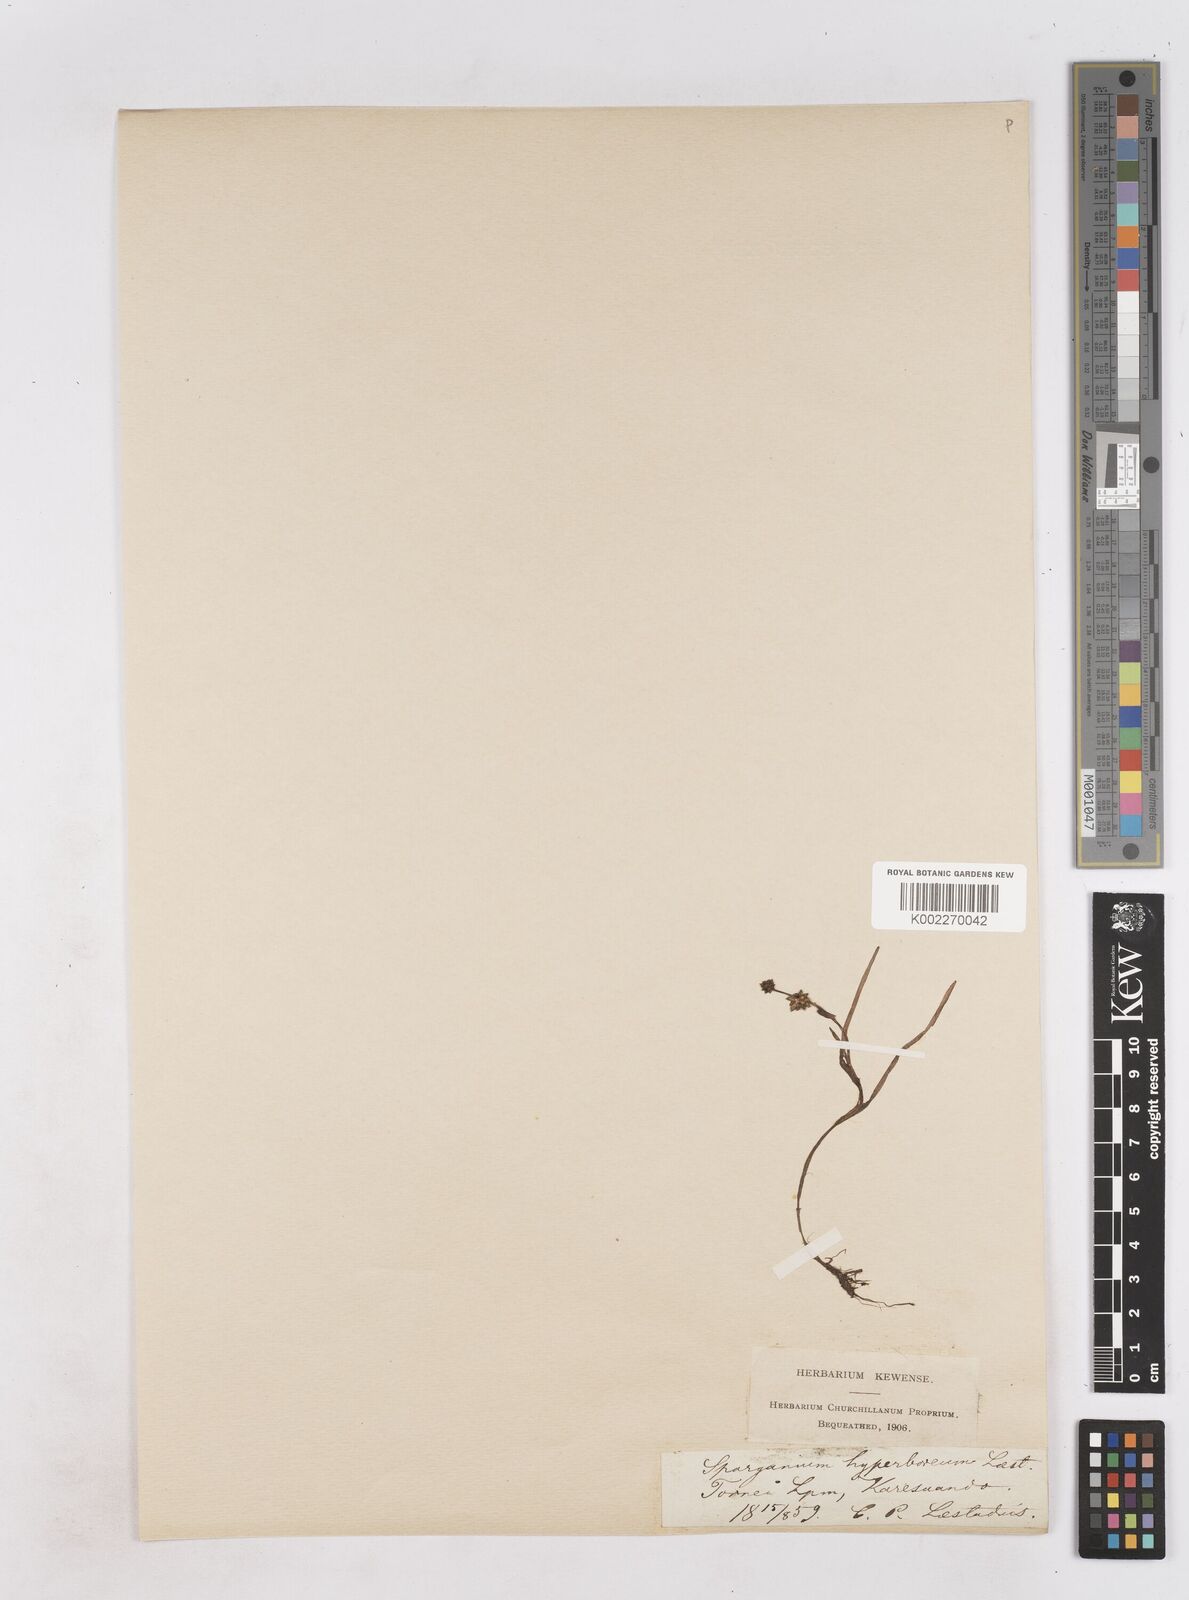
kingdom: Plantae
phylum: Tracheophyta
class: Liliopsida
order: Poales
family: Typhaceae
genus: Sparganium
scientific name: Sparganium hyperboreum
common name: Arctic burreed
